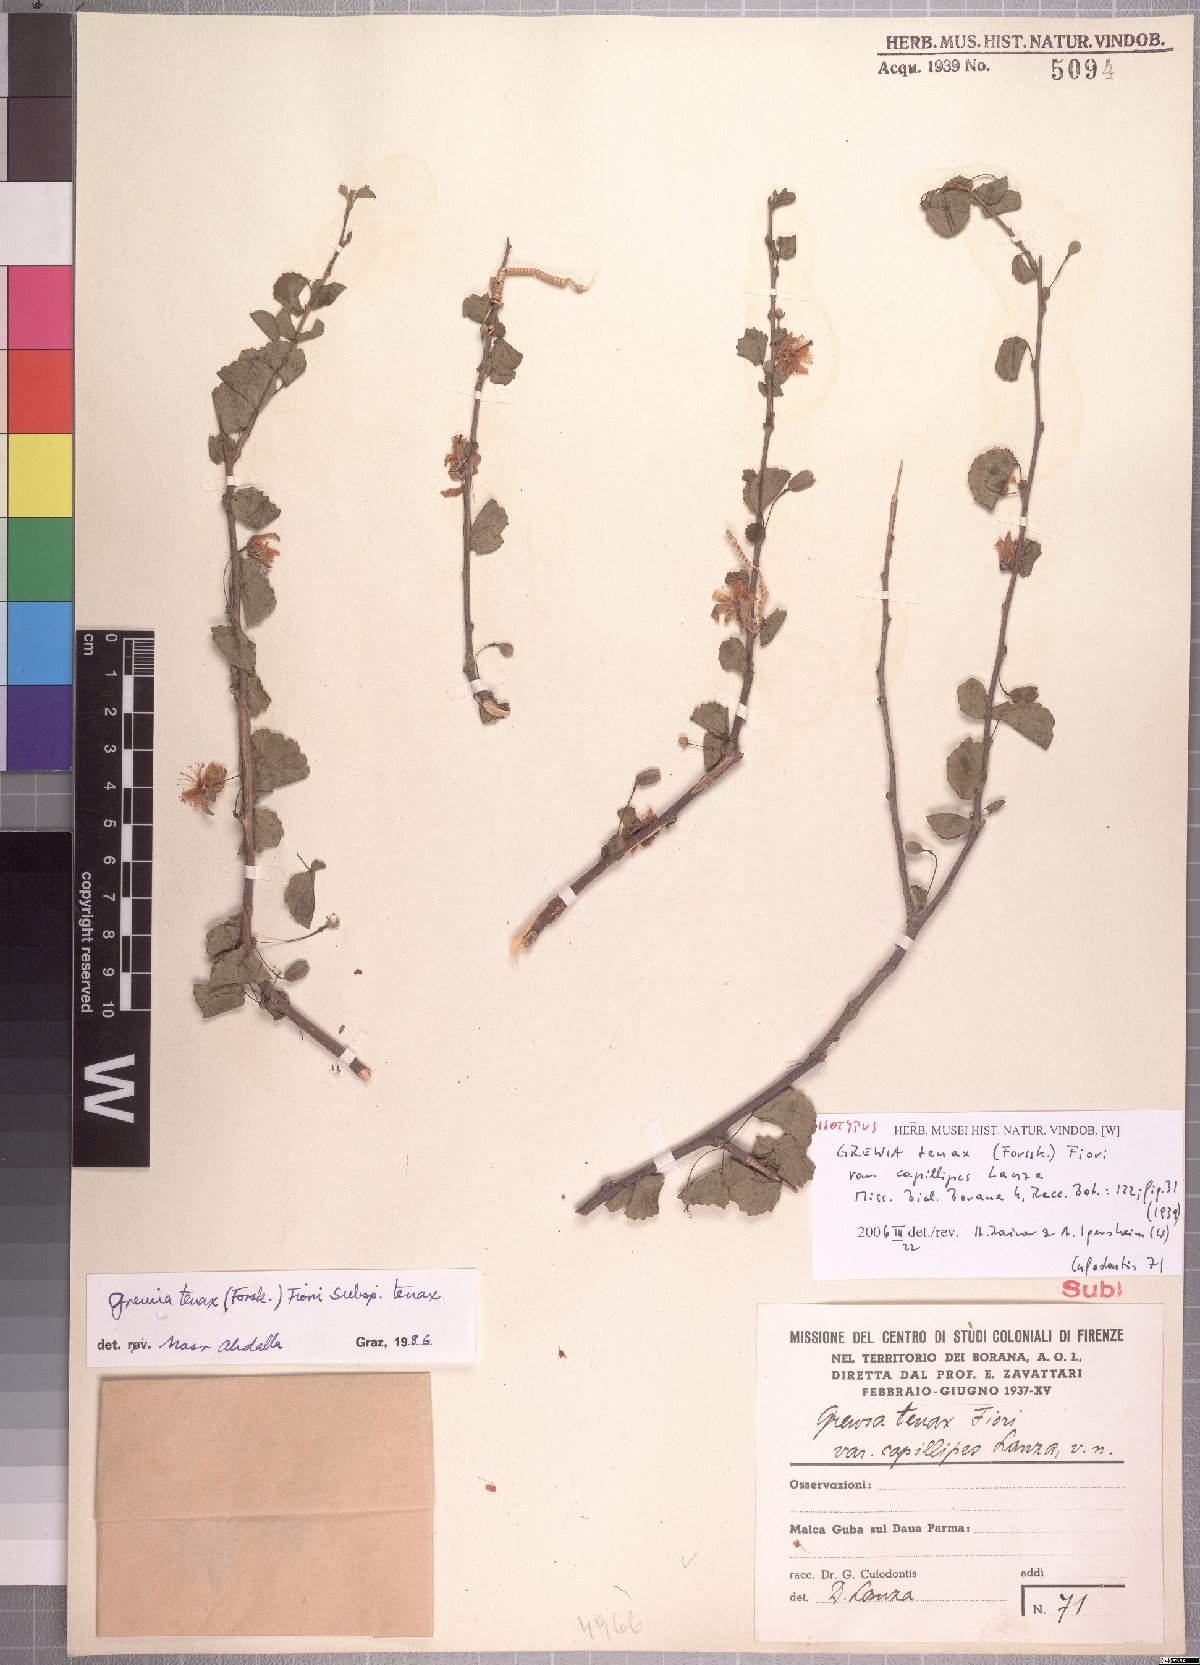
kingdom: Plantae
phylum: Tracheophyta
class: Magnoliopsida
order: Malvales
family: Malvaceae
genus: Grewia
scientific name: Grewia tenax
